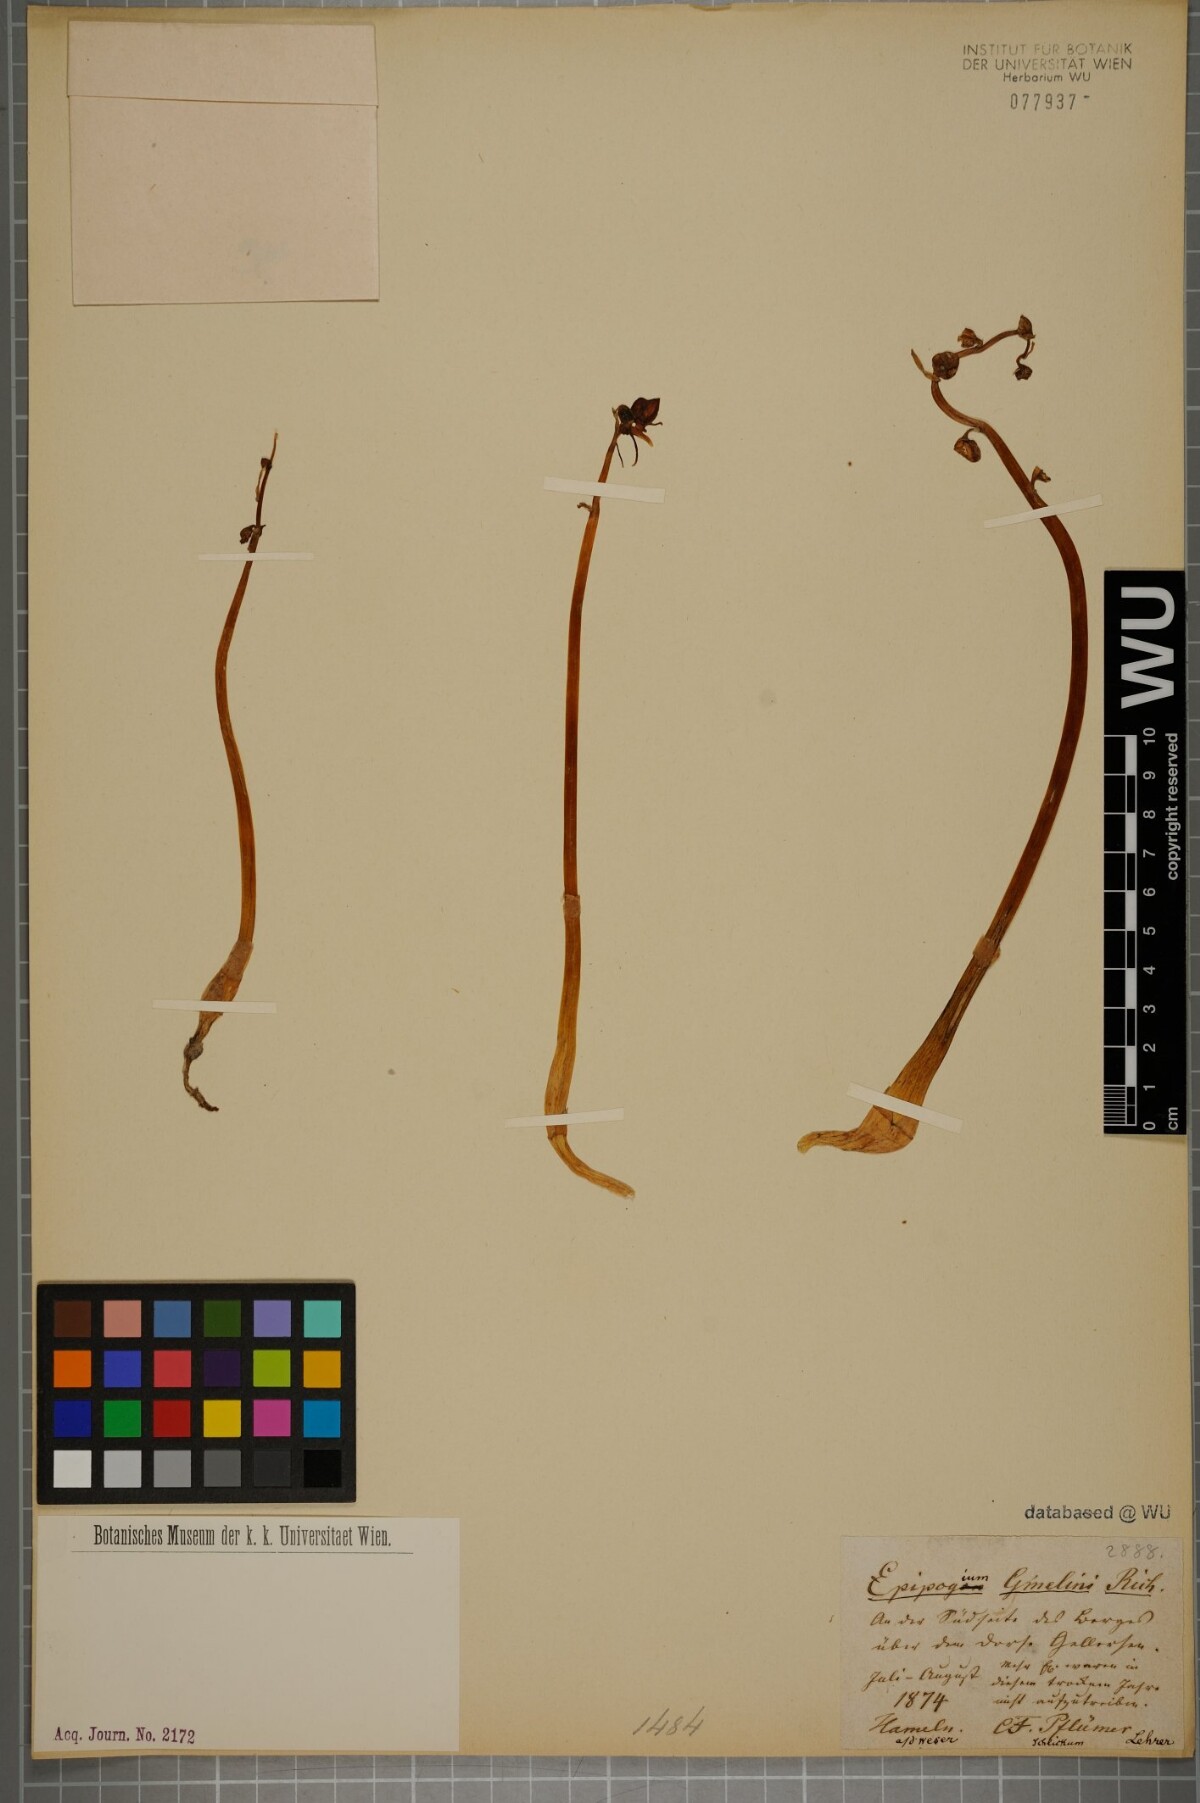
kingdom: Plantae
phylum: Tracheophyta
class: Liliopsida
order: Asparagales
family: Orchidaceae
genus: Epipogium
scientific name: Epipogium aphyllum
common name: Ghost orchid
